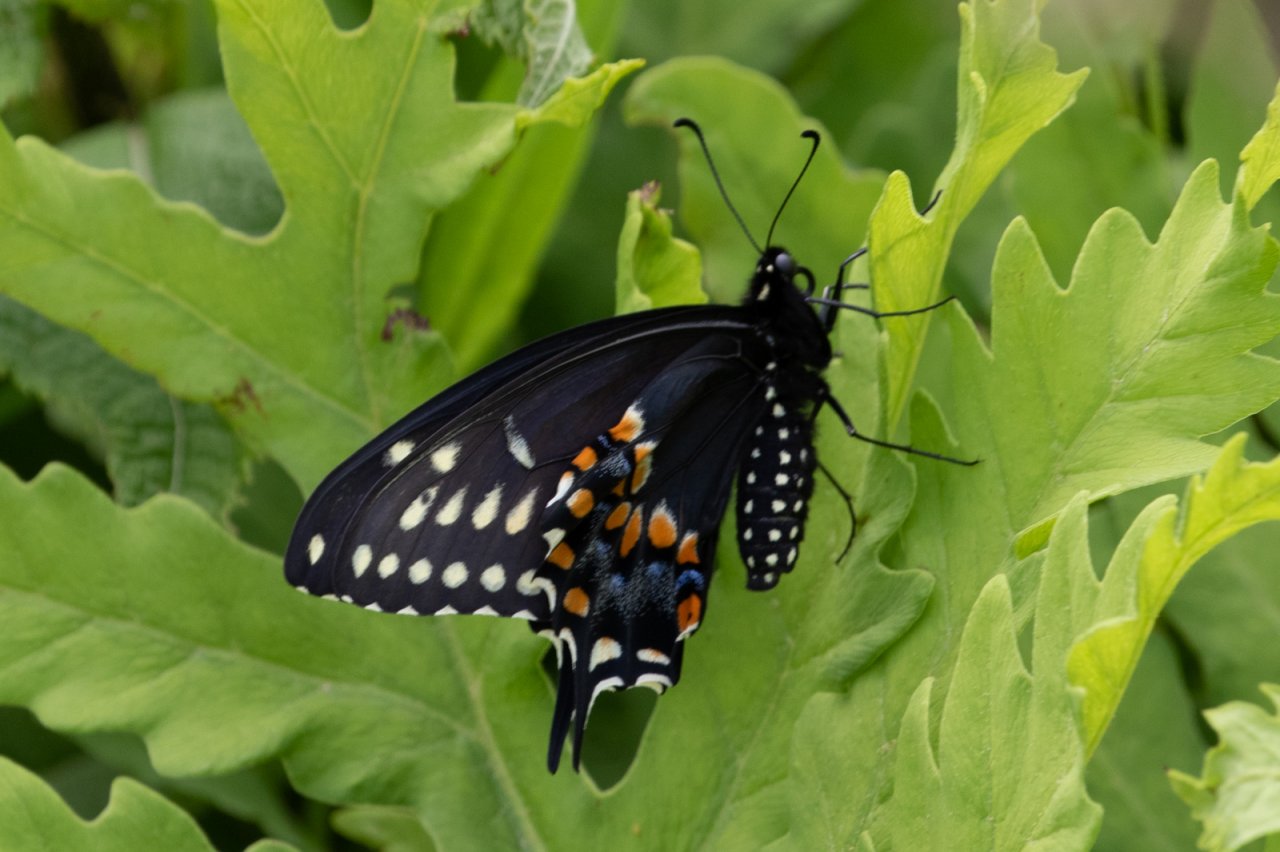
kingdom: Animalia
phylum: Arthropoda
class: Insecta
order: Lepidoptera
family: Papilionidae
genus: Papilio
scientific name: Papilio polyxenes
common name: Black Swallowtail
